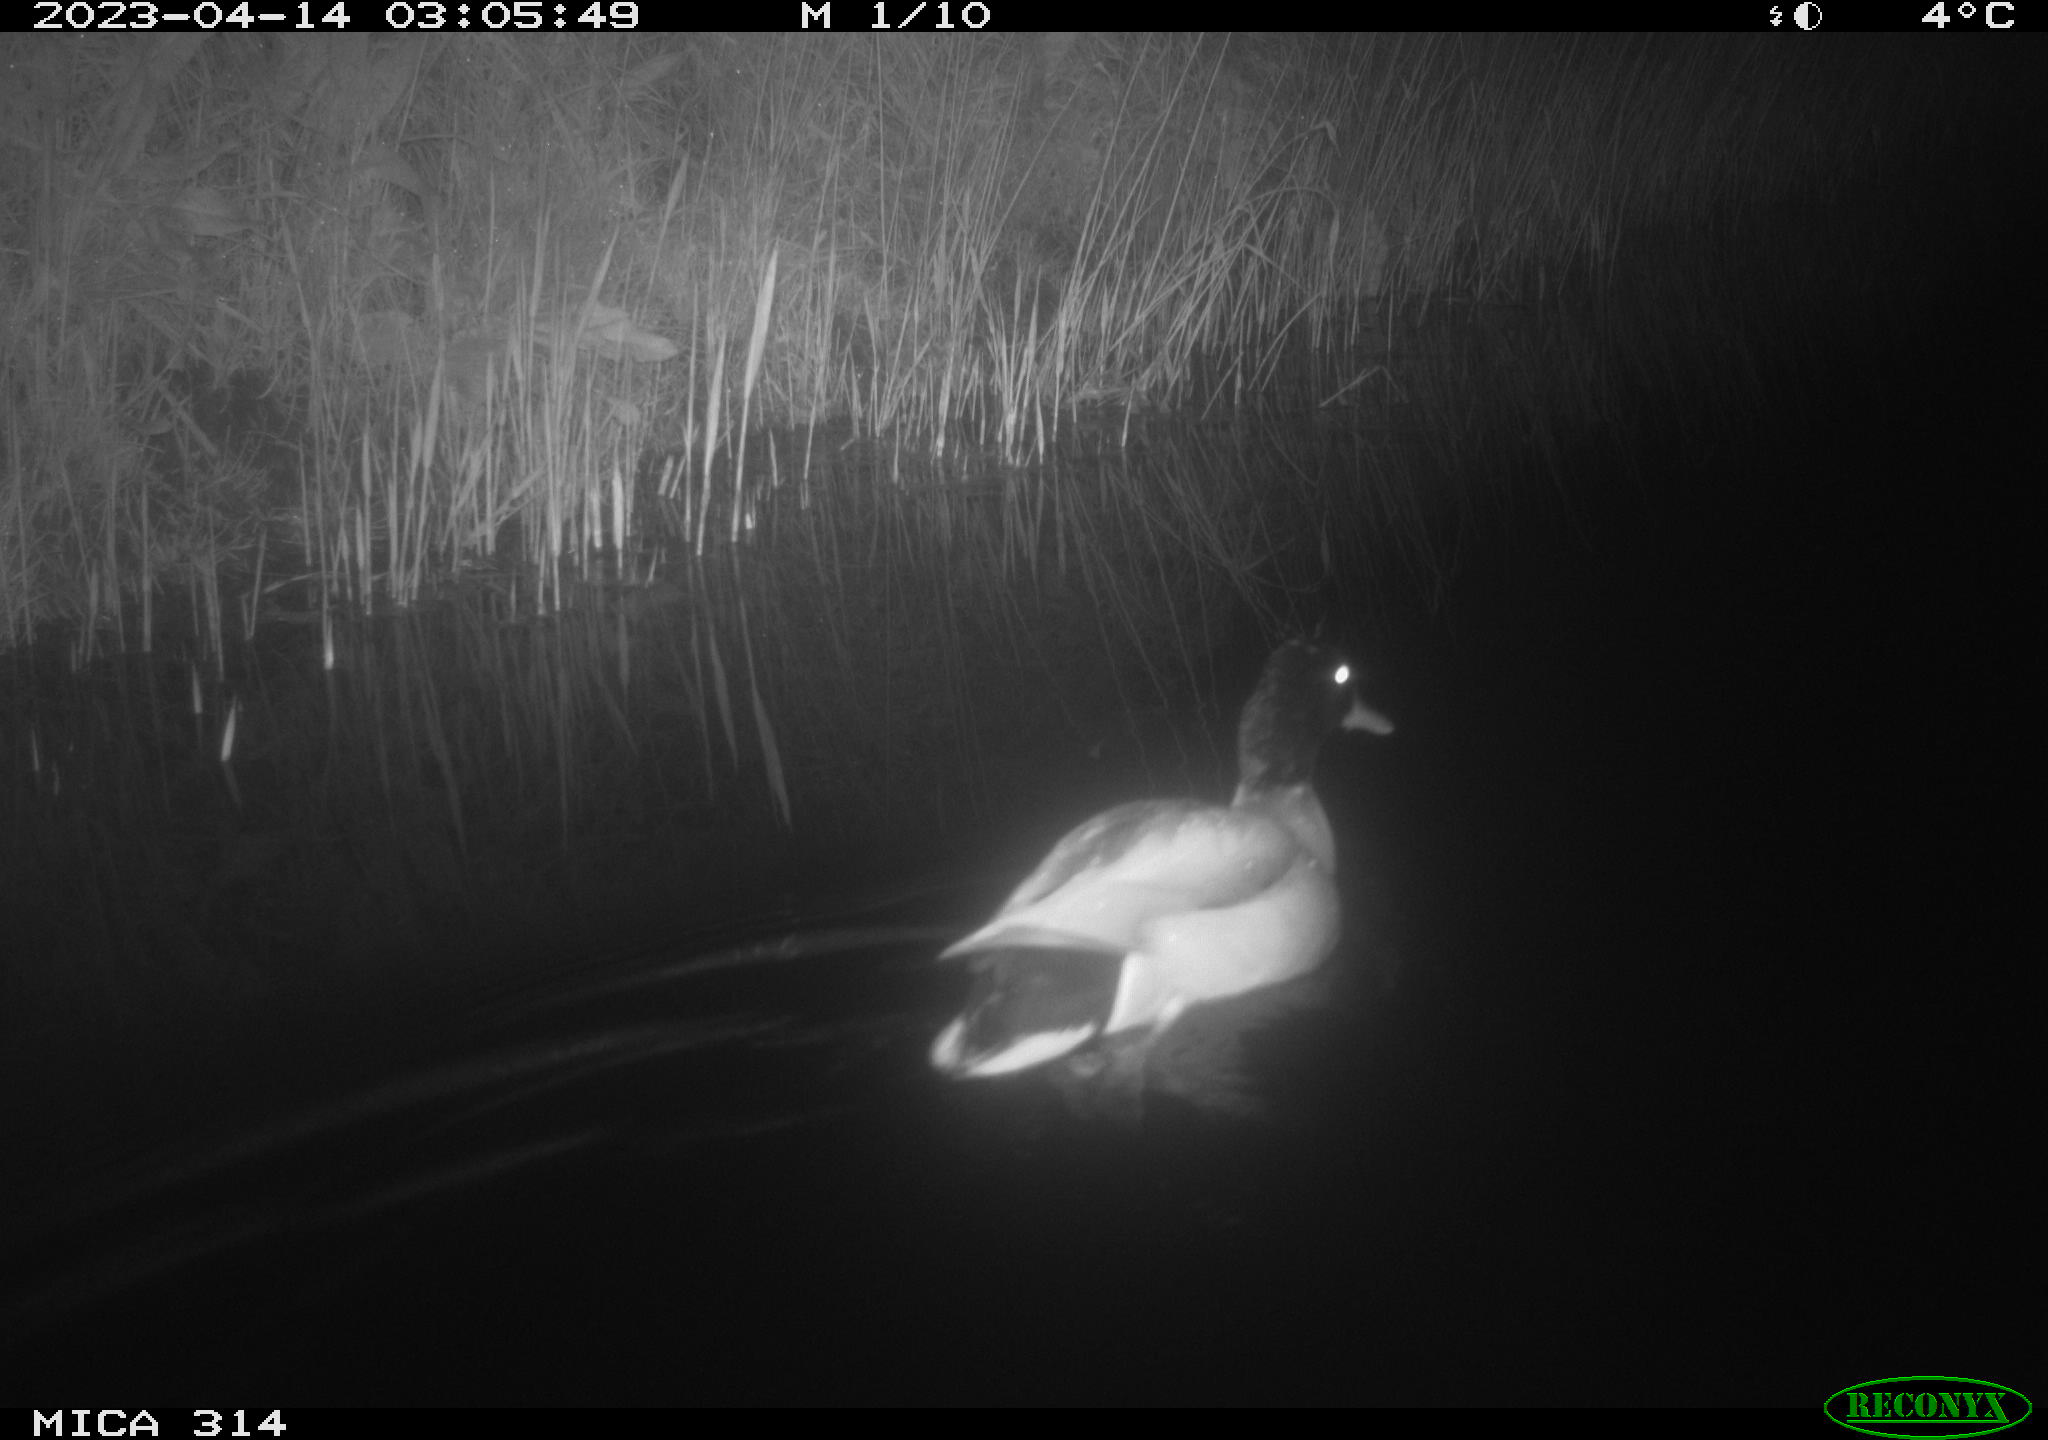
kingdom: Animalia
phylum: Chordata
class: Aves
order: Anseriformes
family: Anatidae
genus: Anas
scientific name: Anas
